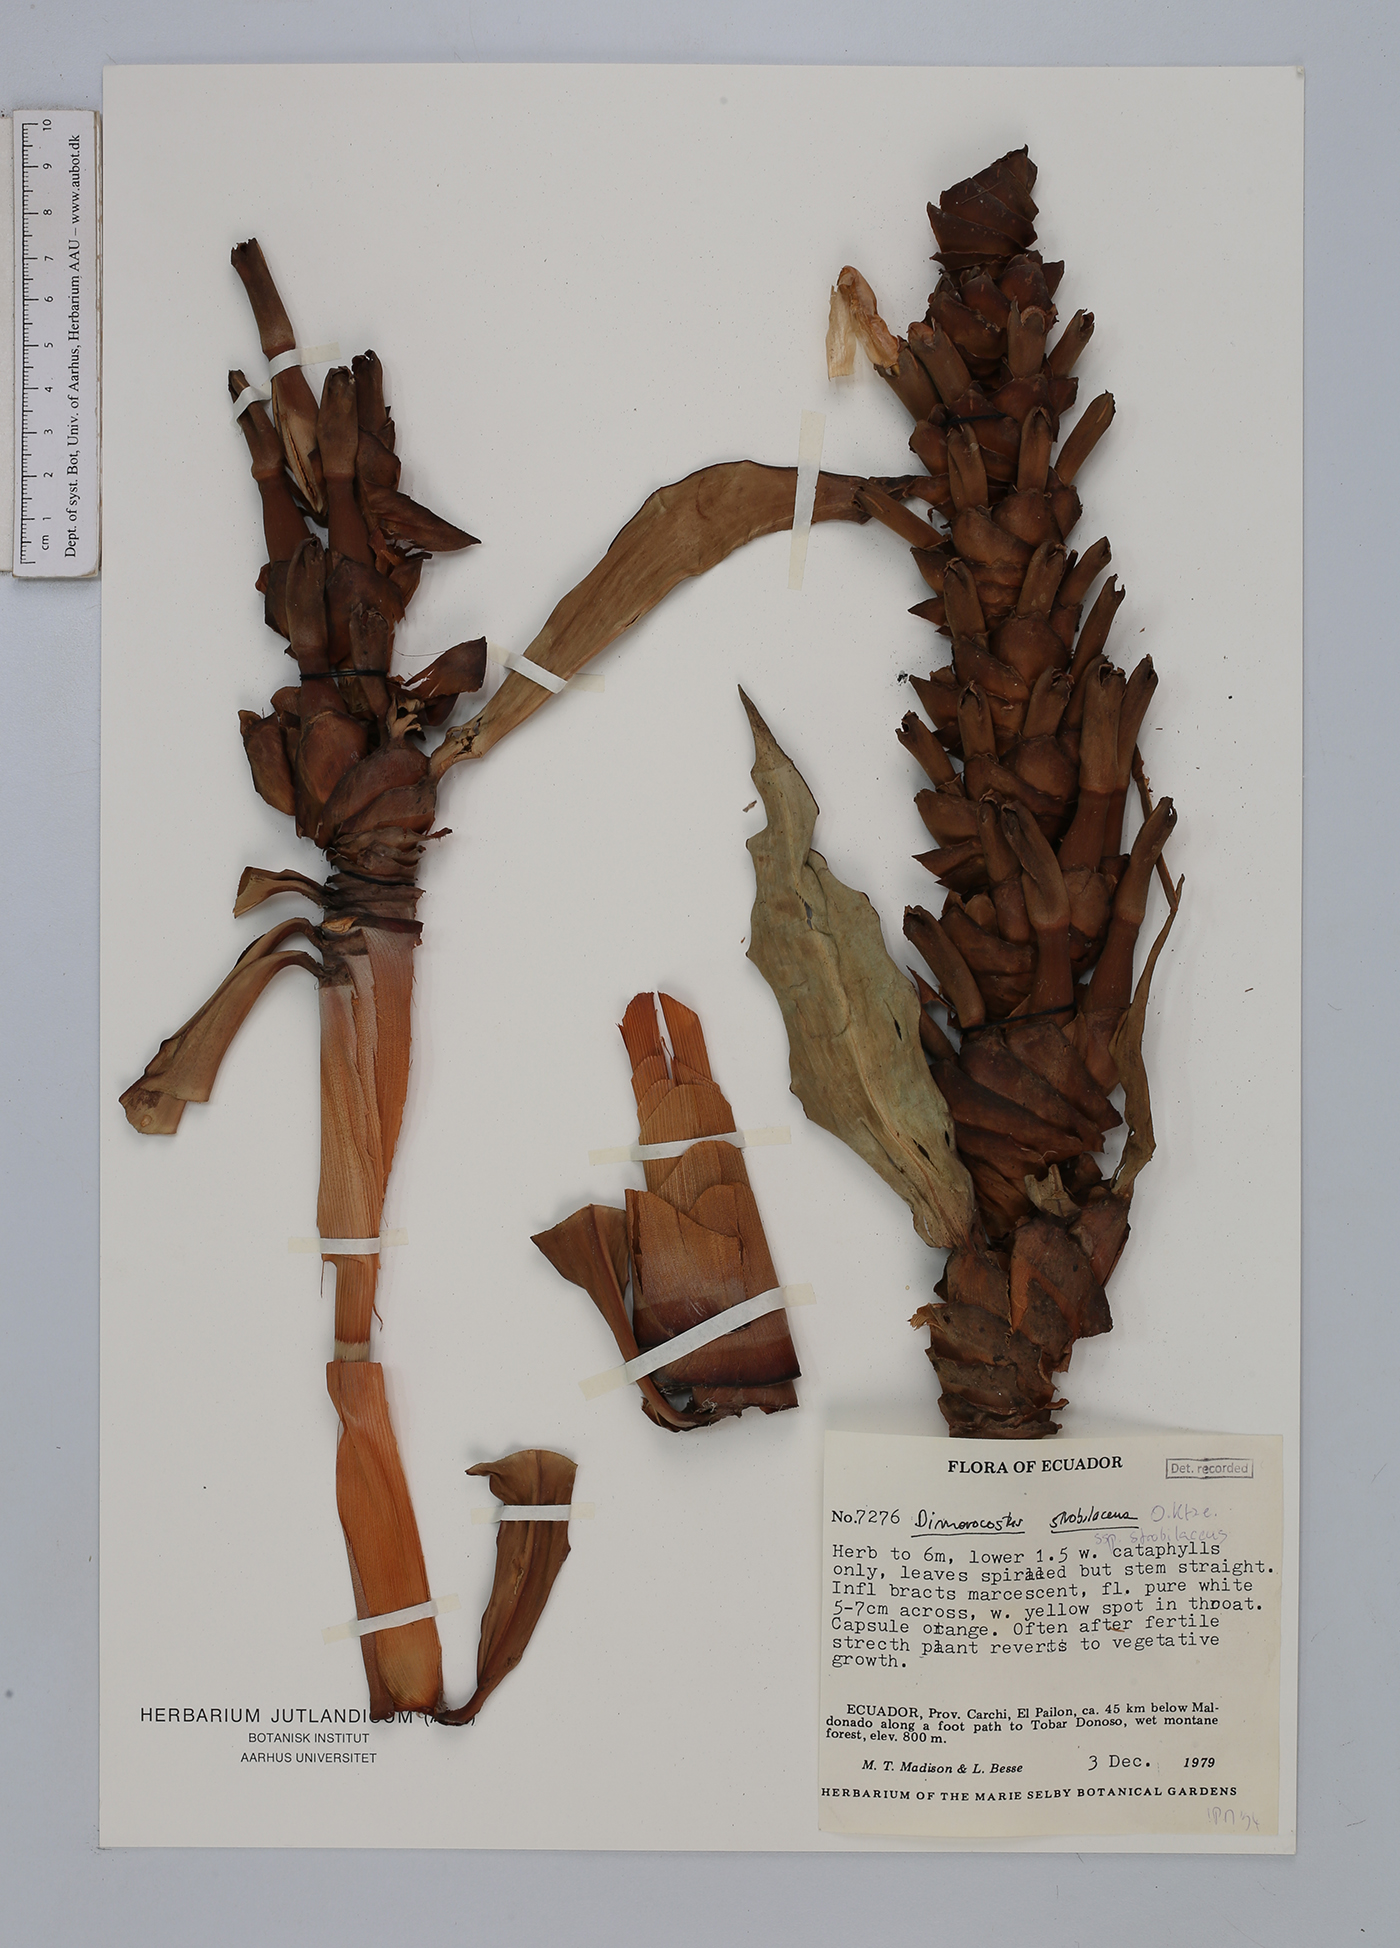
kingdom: Plantae
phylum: Tracheophyta
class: Liliopsida
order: Zingiberales
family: Costaceae
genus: Dimerocostus
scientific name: Dimerocostus strobilaceus
